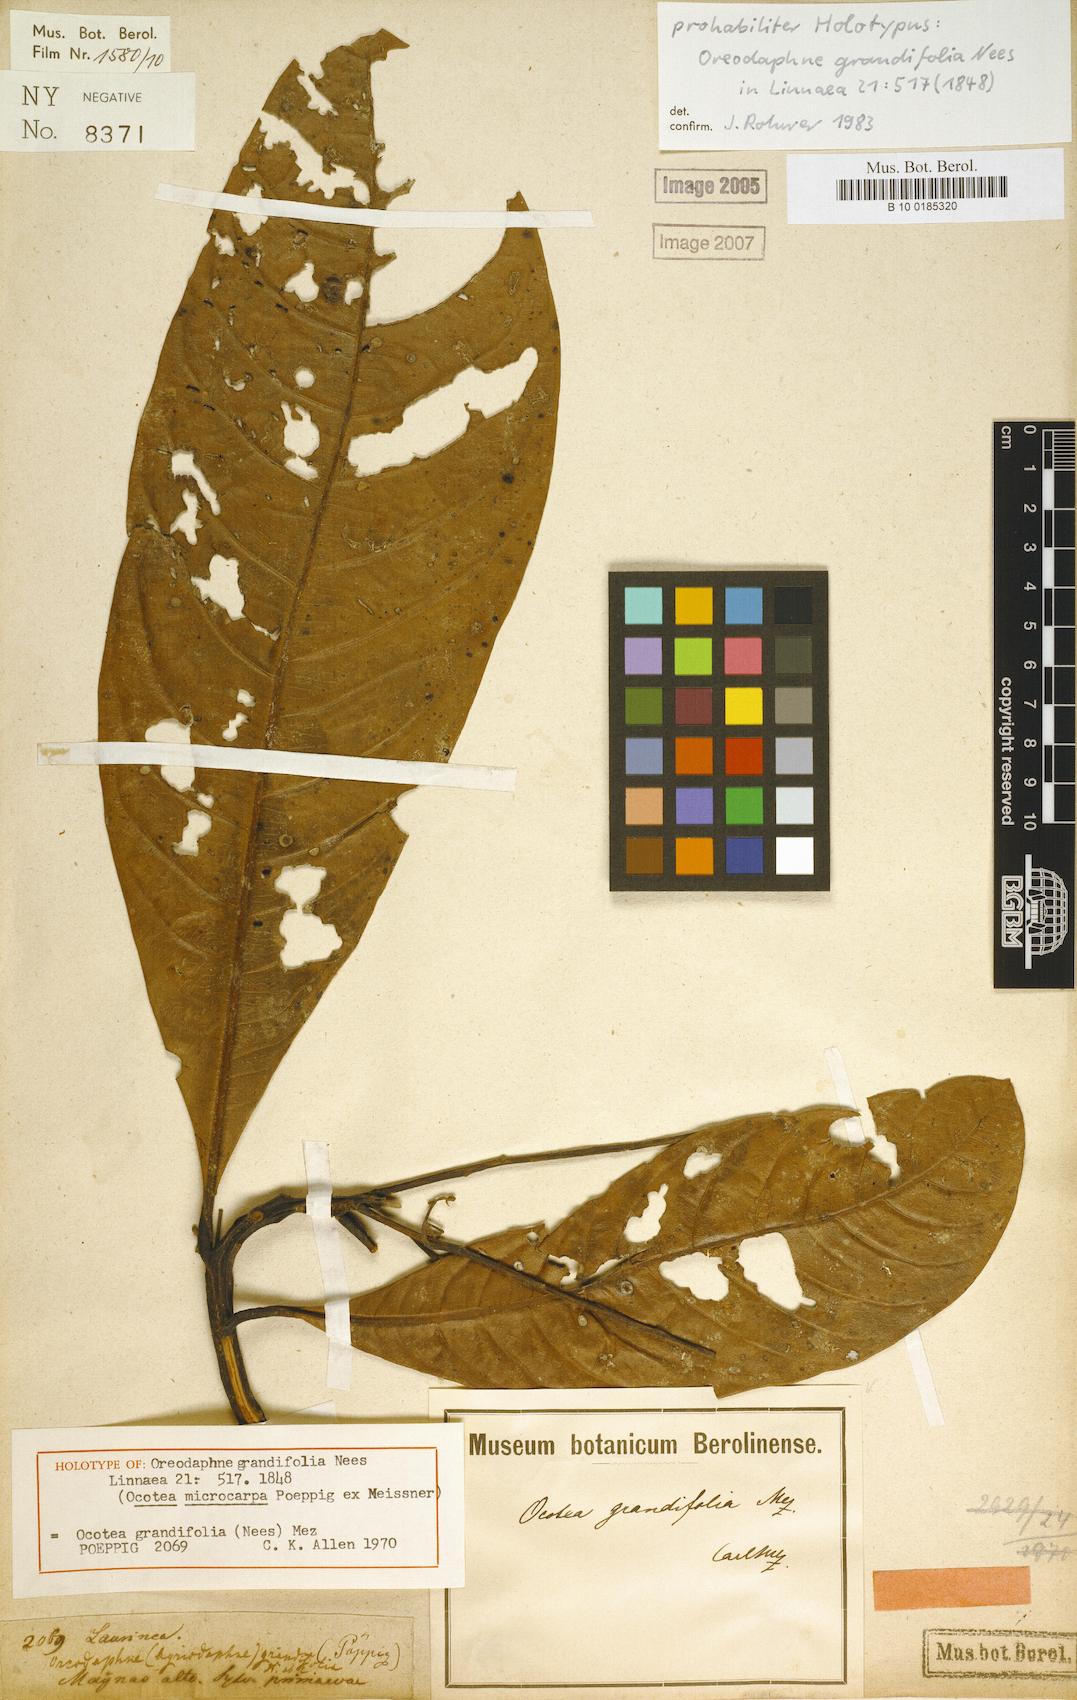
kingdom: Plantae
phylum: Tracheophyta
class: Magnoliopsida
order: Laurales
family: Lauraceae
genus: Mespilodaphne
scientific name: Mespilodaphne opifera
